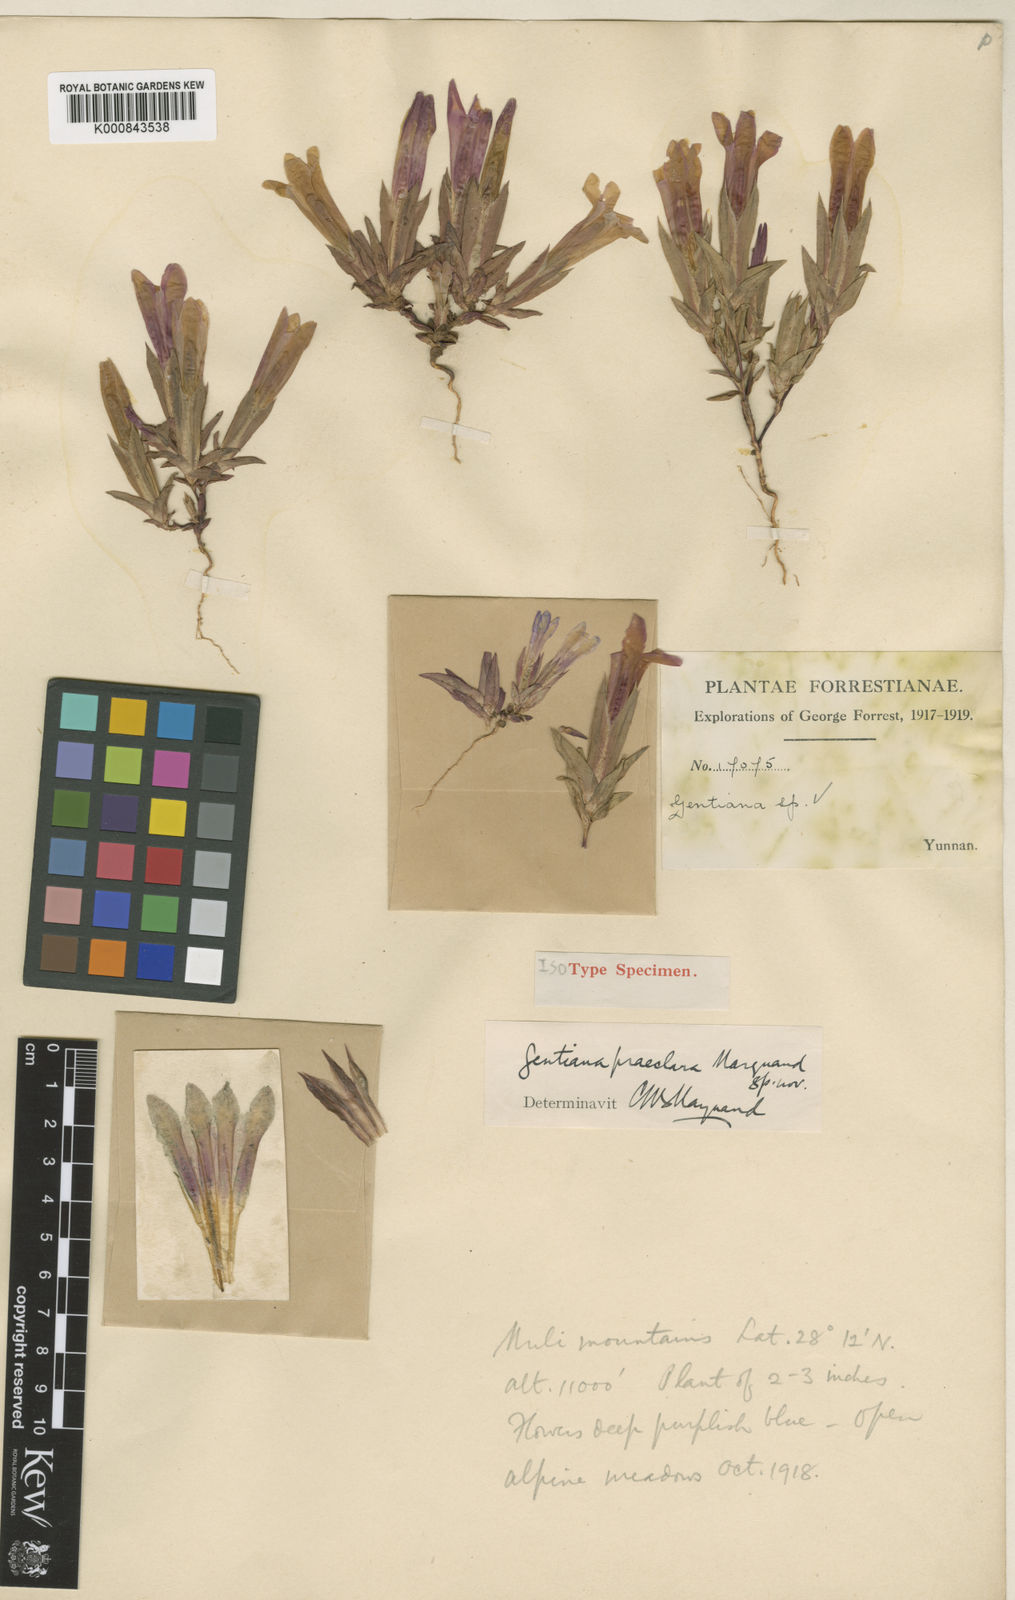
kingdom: Plantae
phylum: Tracheophyta
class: Magnoliopsida
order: Gentianales
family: Gentianaceae
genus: Gentiana
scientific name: Gentiana praeclara
